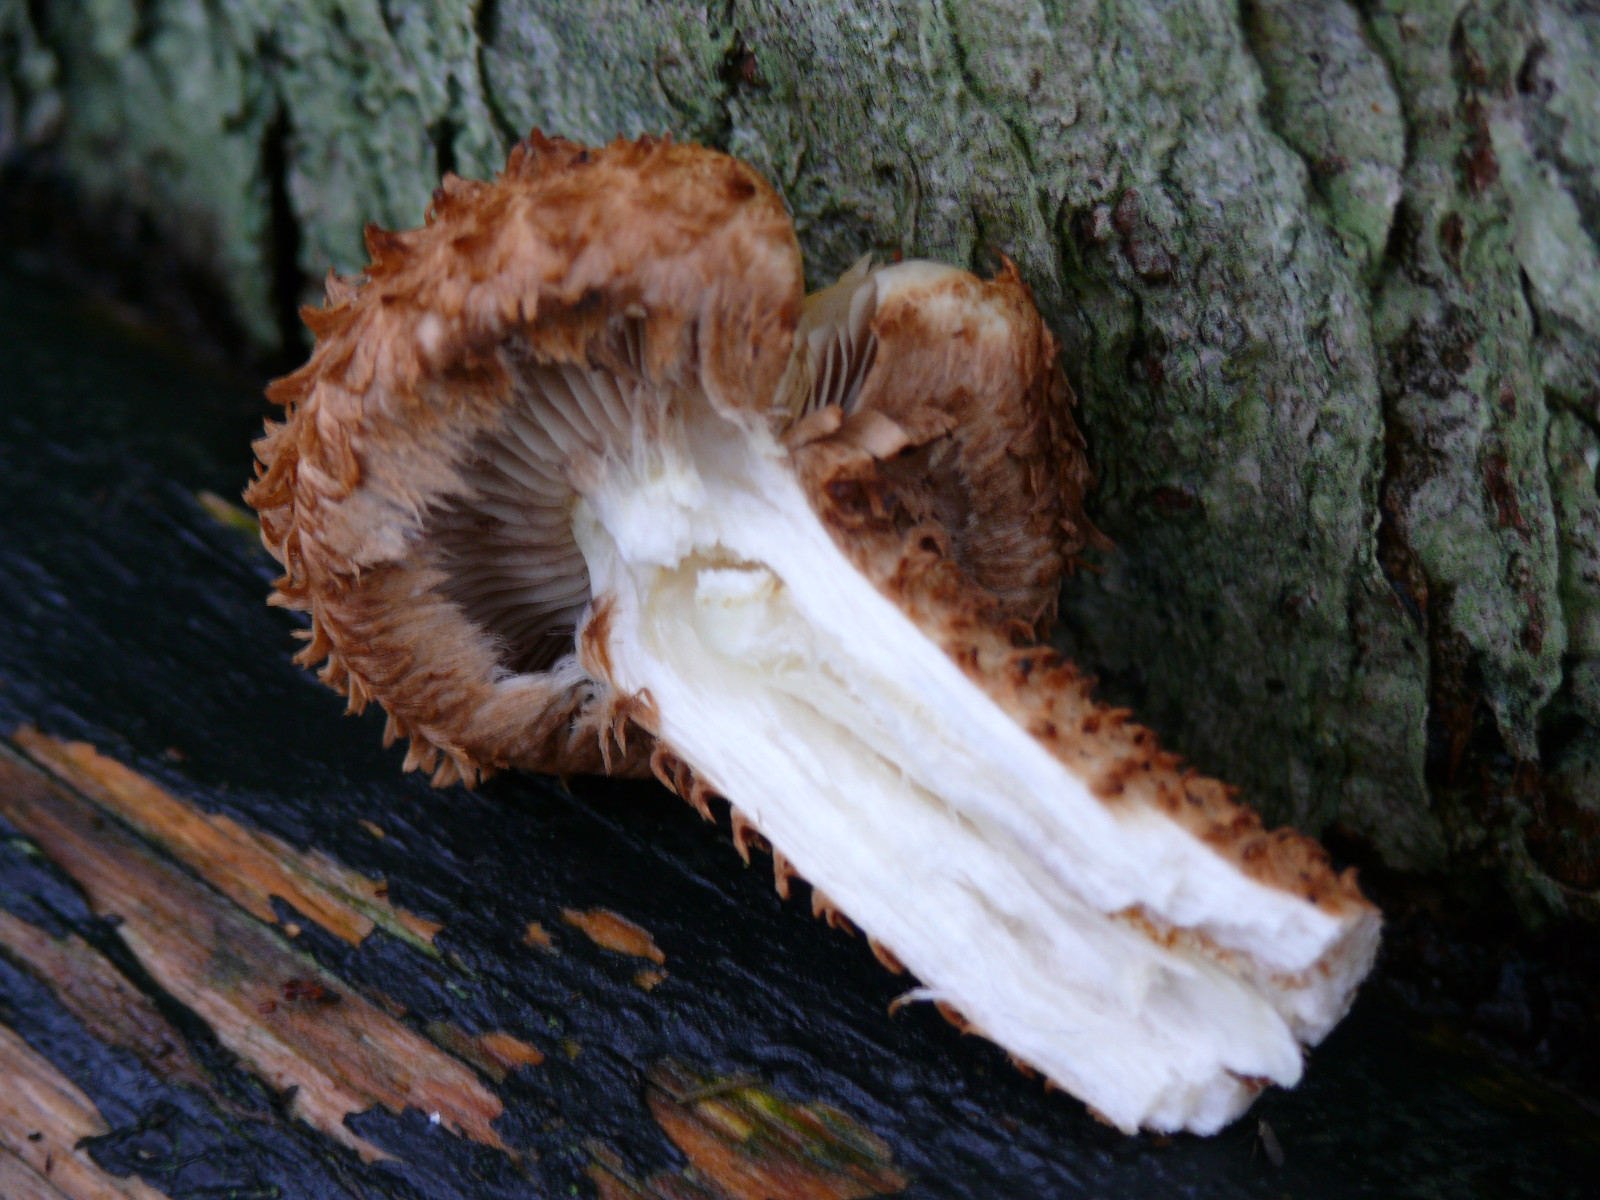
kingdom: Fungi
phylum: Basidiomycota
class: Agaricomycetes
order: Agaricales
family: Strophariaceae
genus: Pholiota
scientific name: Pholiota squarrosa
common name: krumskællet skælhat
